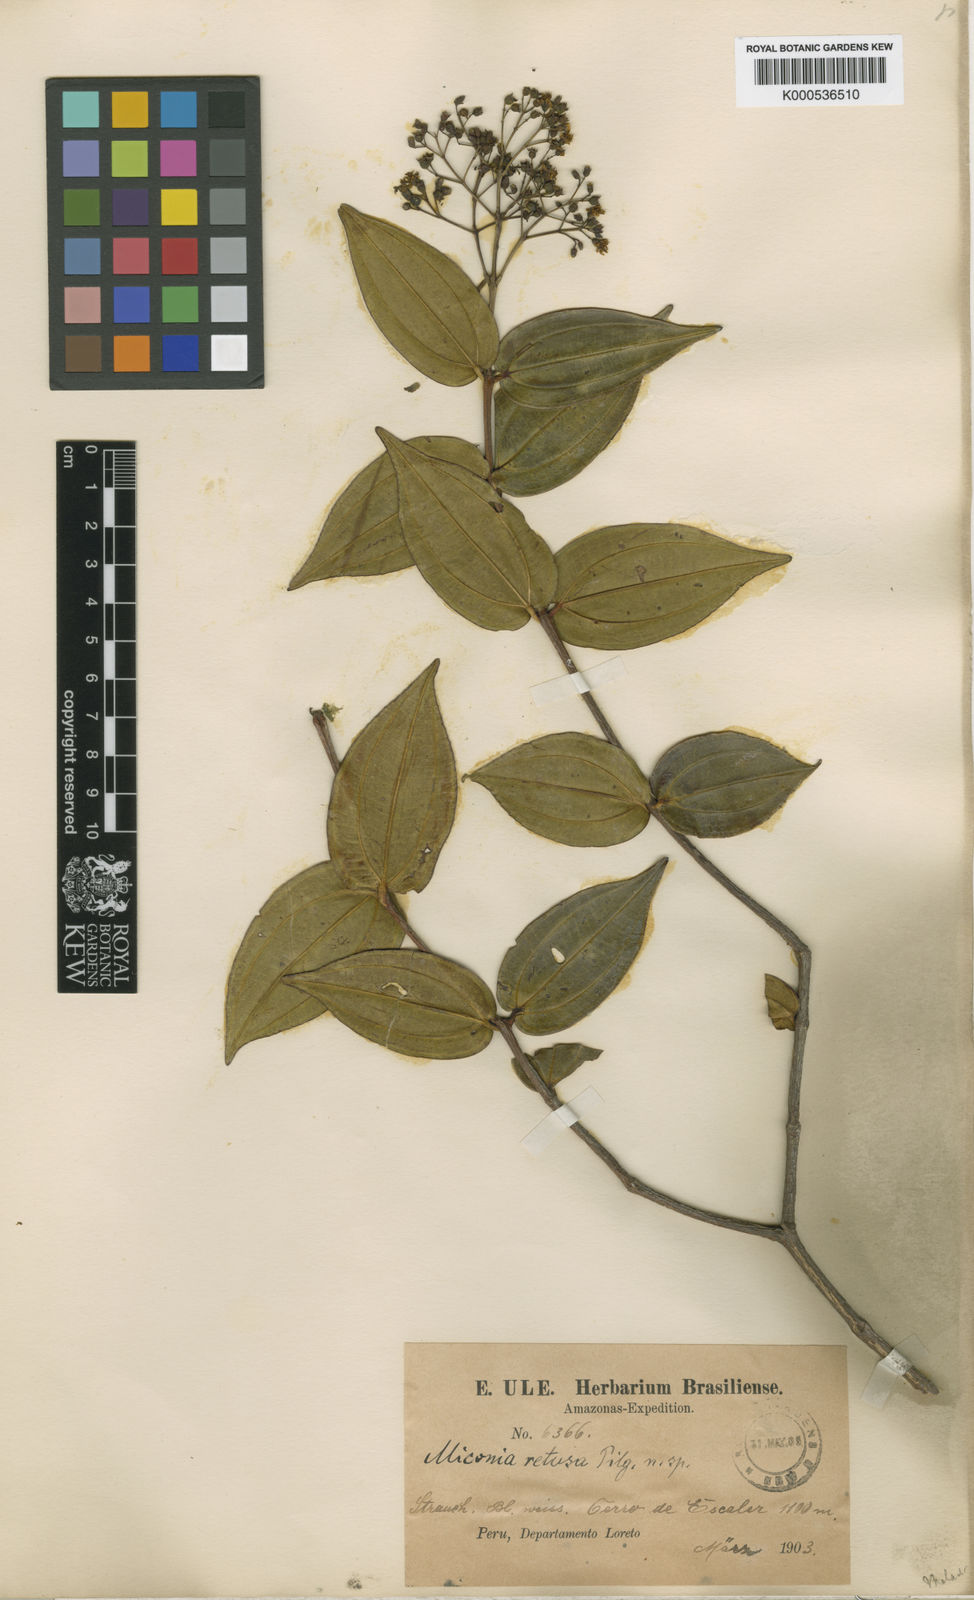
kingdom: Plantae
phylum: Tracheophyta
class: Magnoliopsida
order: Myrtales
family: Melastomataceae
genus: Miconia
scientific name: Miconia retusa
